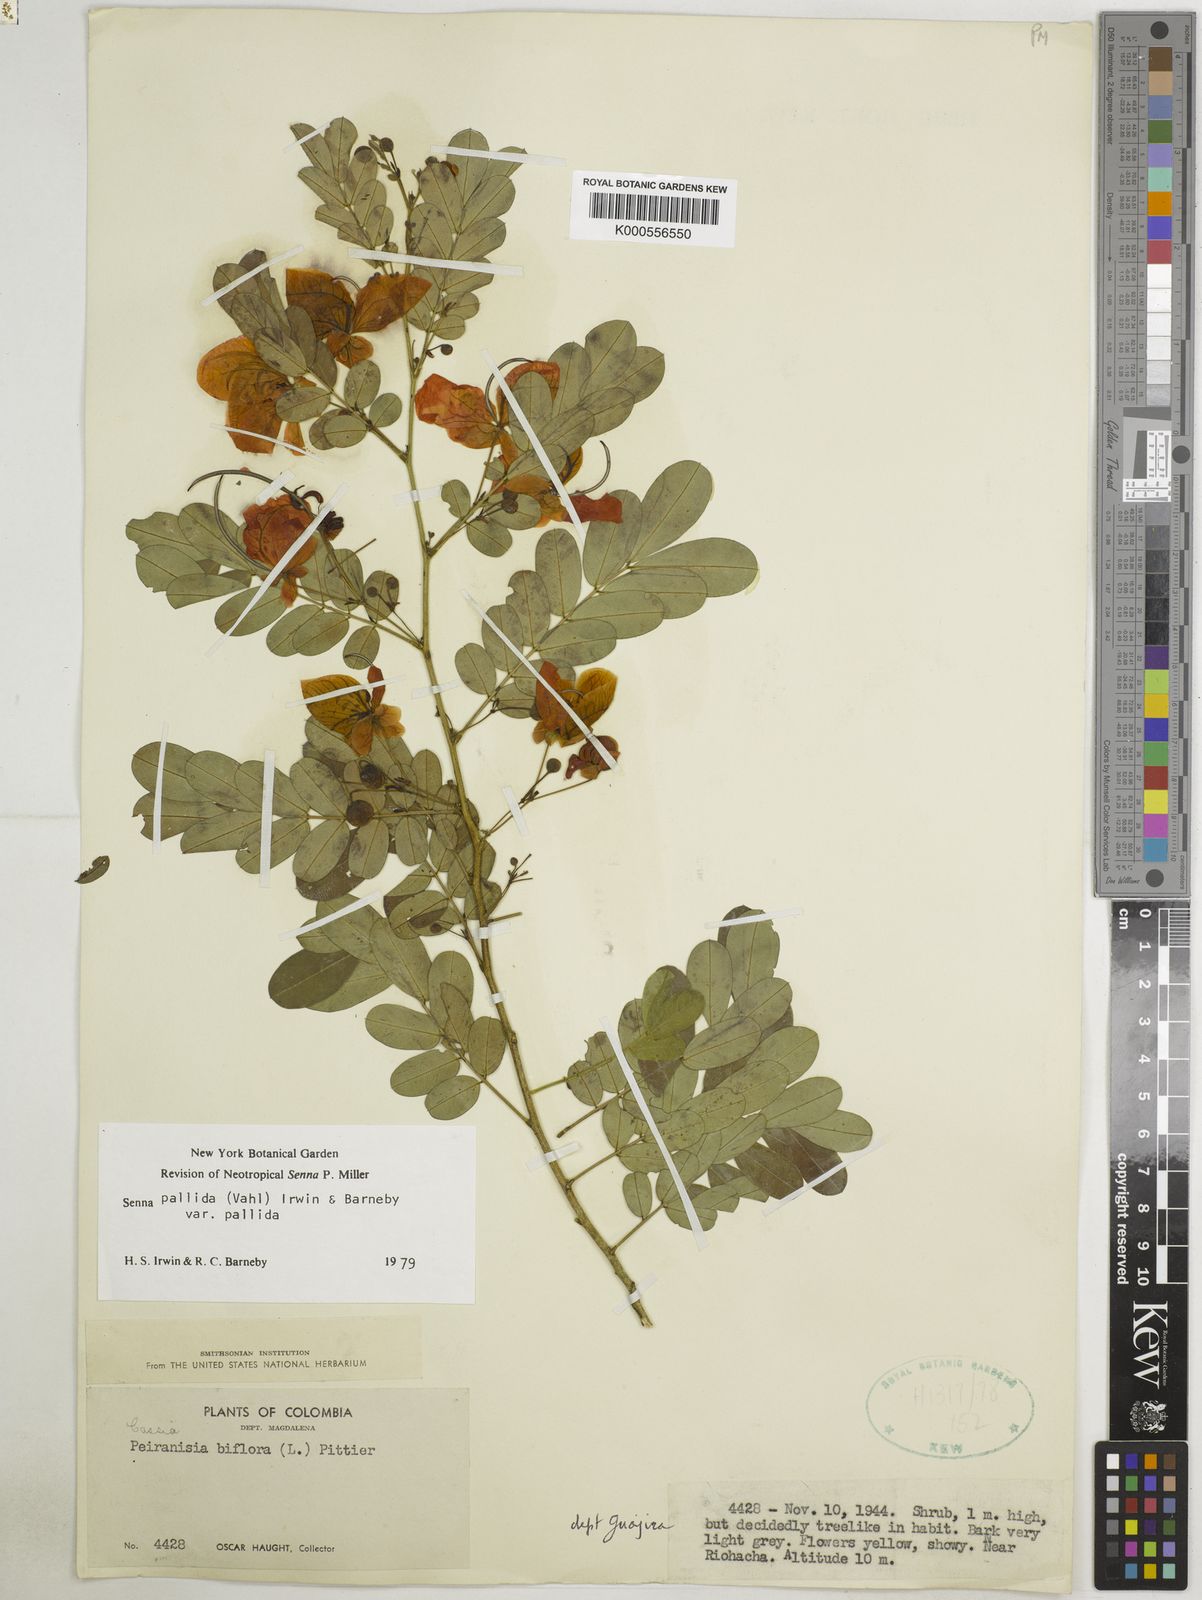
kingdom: Plantae
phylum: Tracheophyta
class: Magnoliopsida
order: Fabales
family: Fabaceae
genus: Senna
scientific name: Senna pallida
